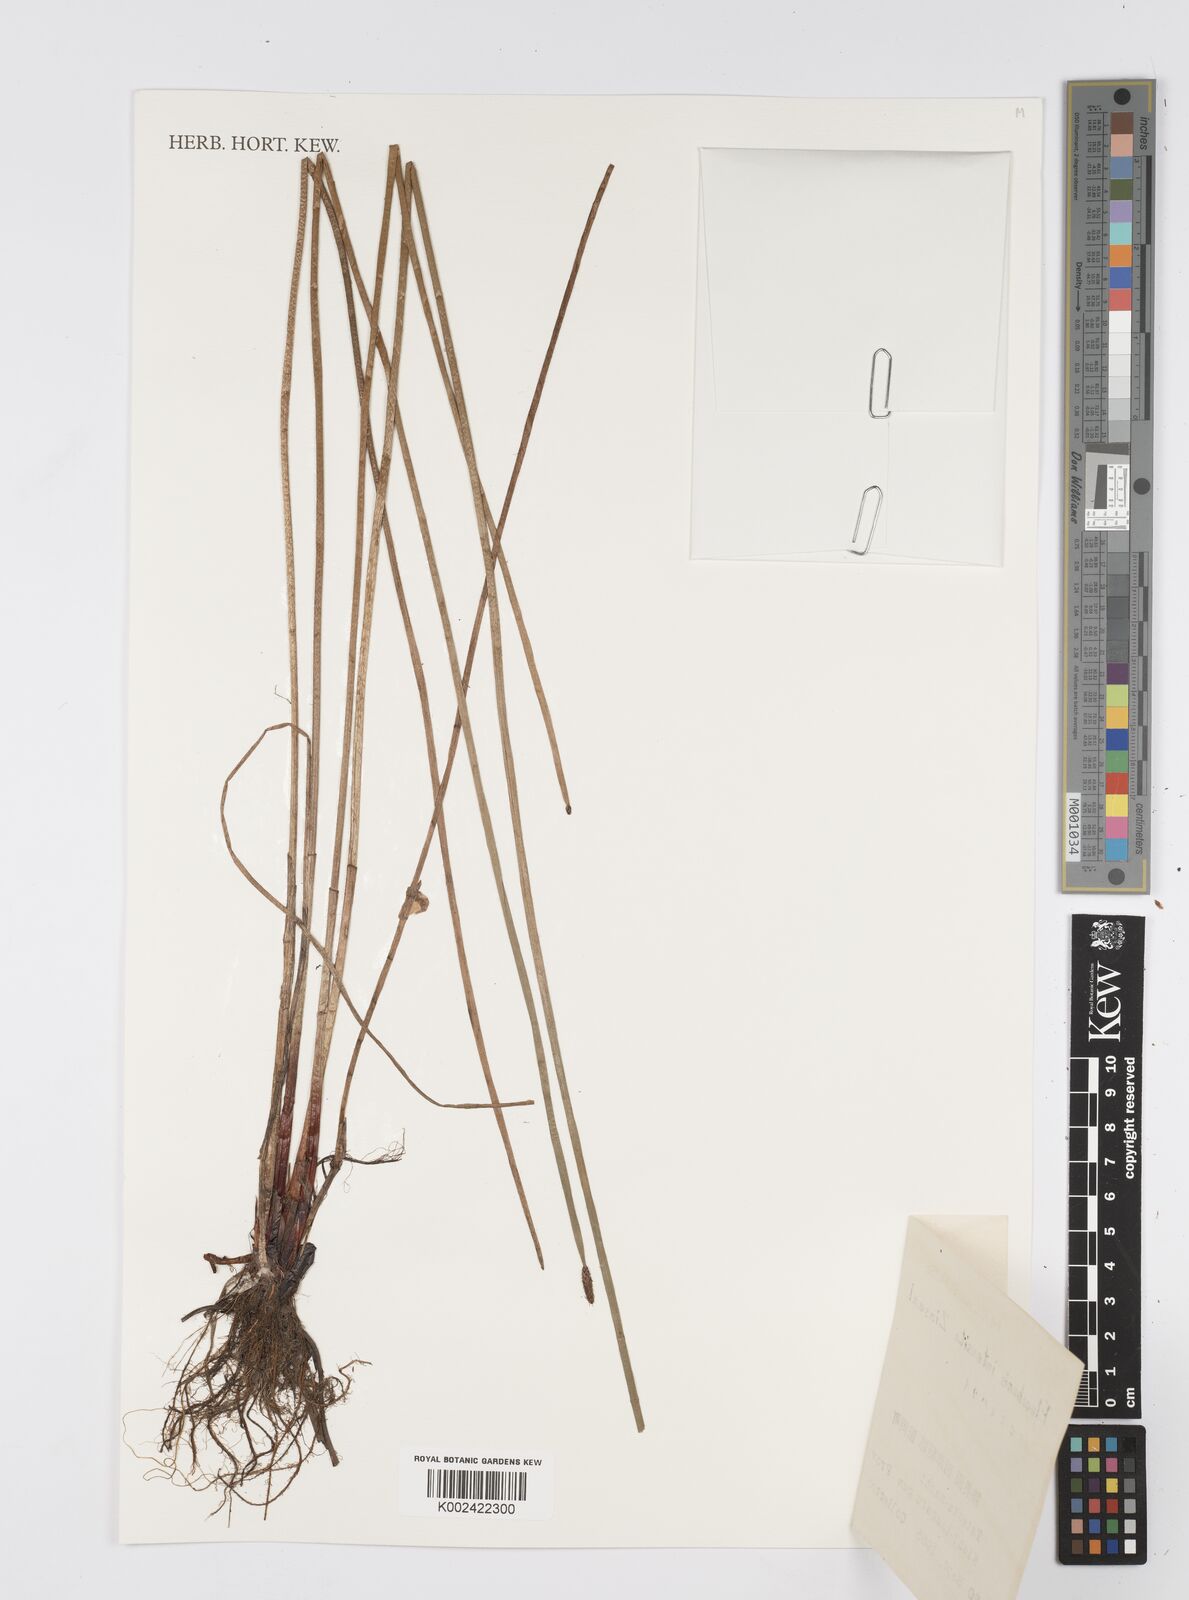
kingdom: Plantae
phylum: Tracheophyta
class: Liliopsida
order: Poales
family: Cyperaceae
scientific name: Cyperaceae
